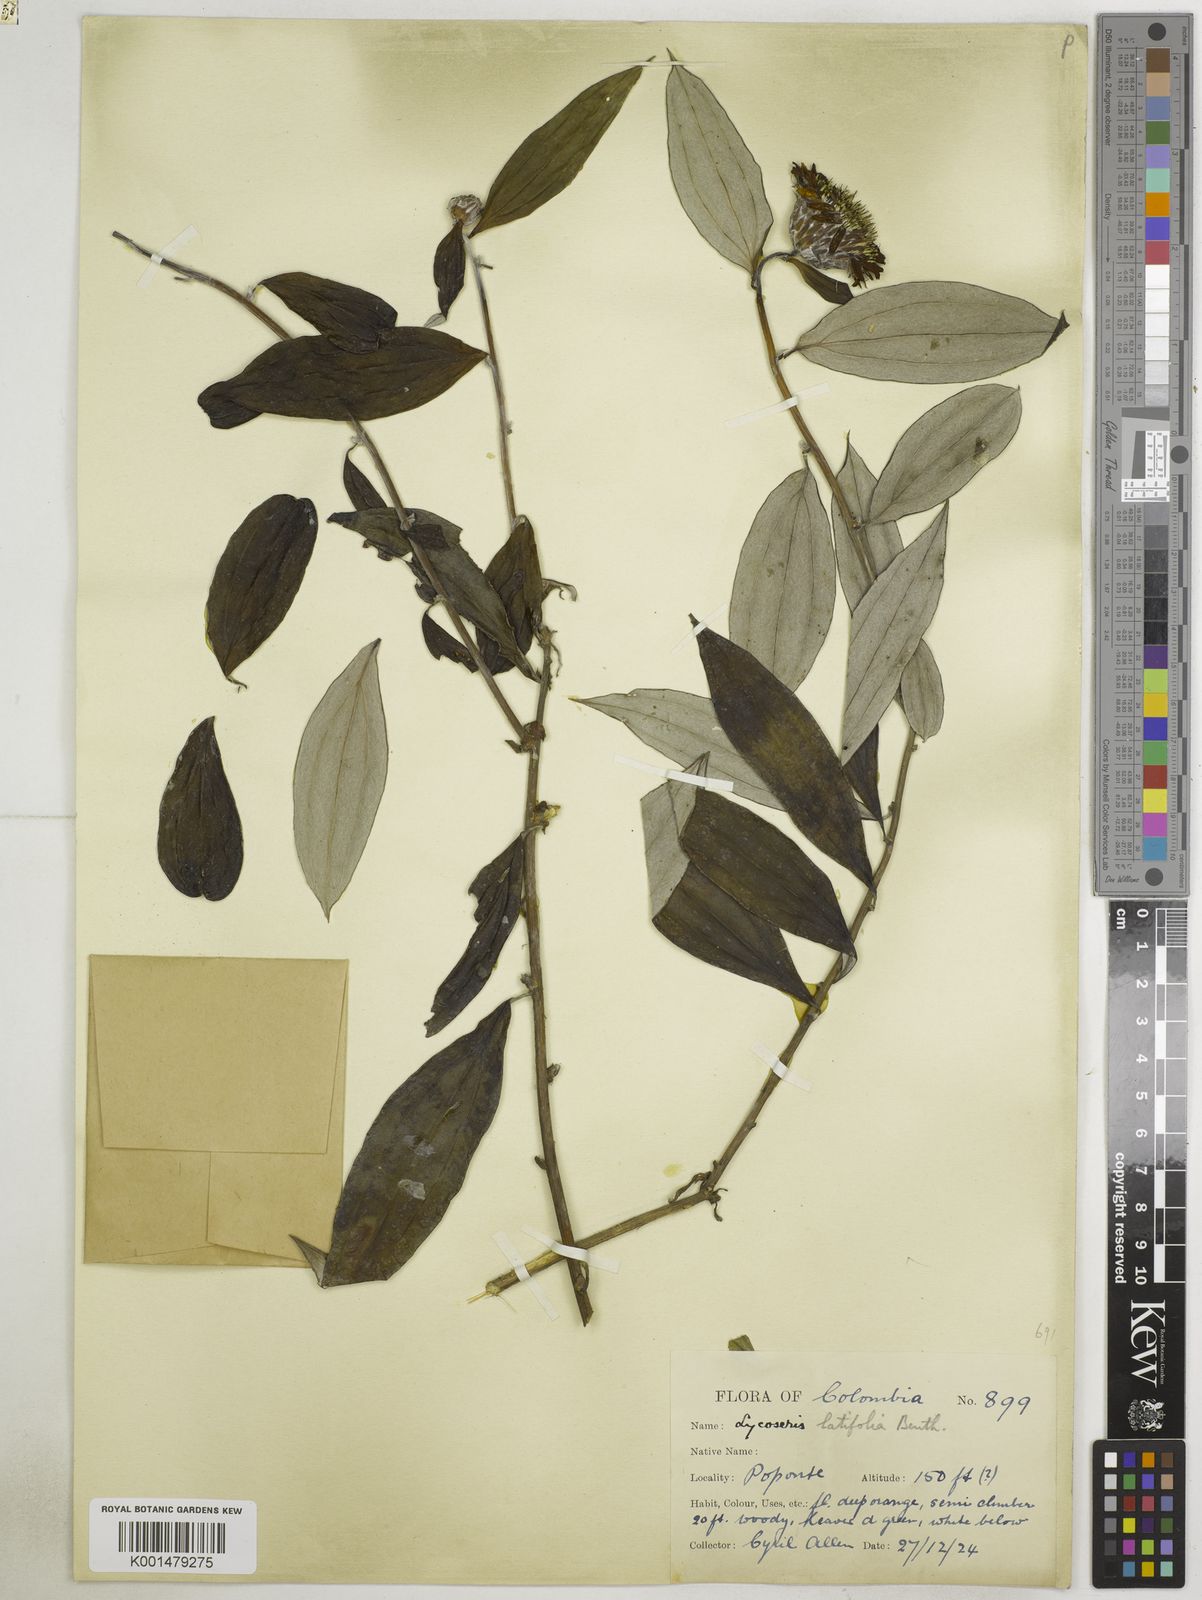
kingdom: Plantae
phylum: Tracheophyta
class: Magnoliopsida
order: Asterales
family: Asteraceae
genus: Lycoseris
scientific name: Lycoseris triplinervia
